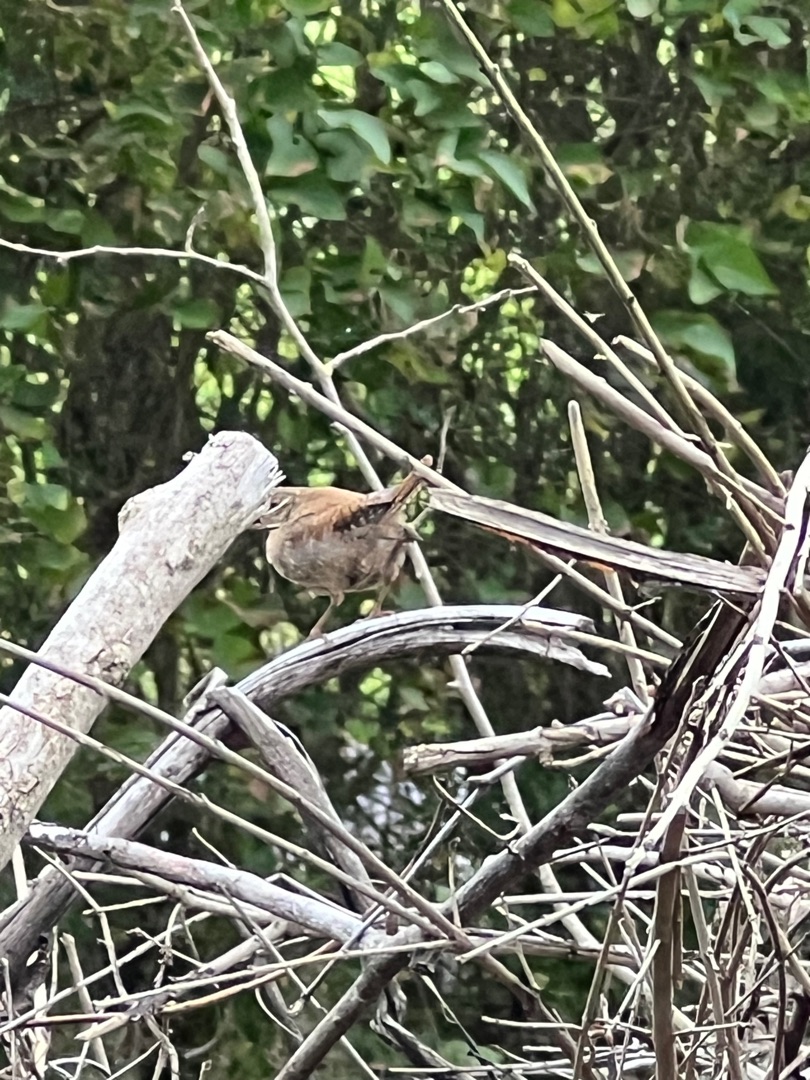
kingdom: Animalia
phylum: Chordata
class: Aves
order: Passeriformes
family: Troglodytidae
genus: Troglodytes
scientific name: Troglodytes troglodytes
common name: Gærdesmutte
